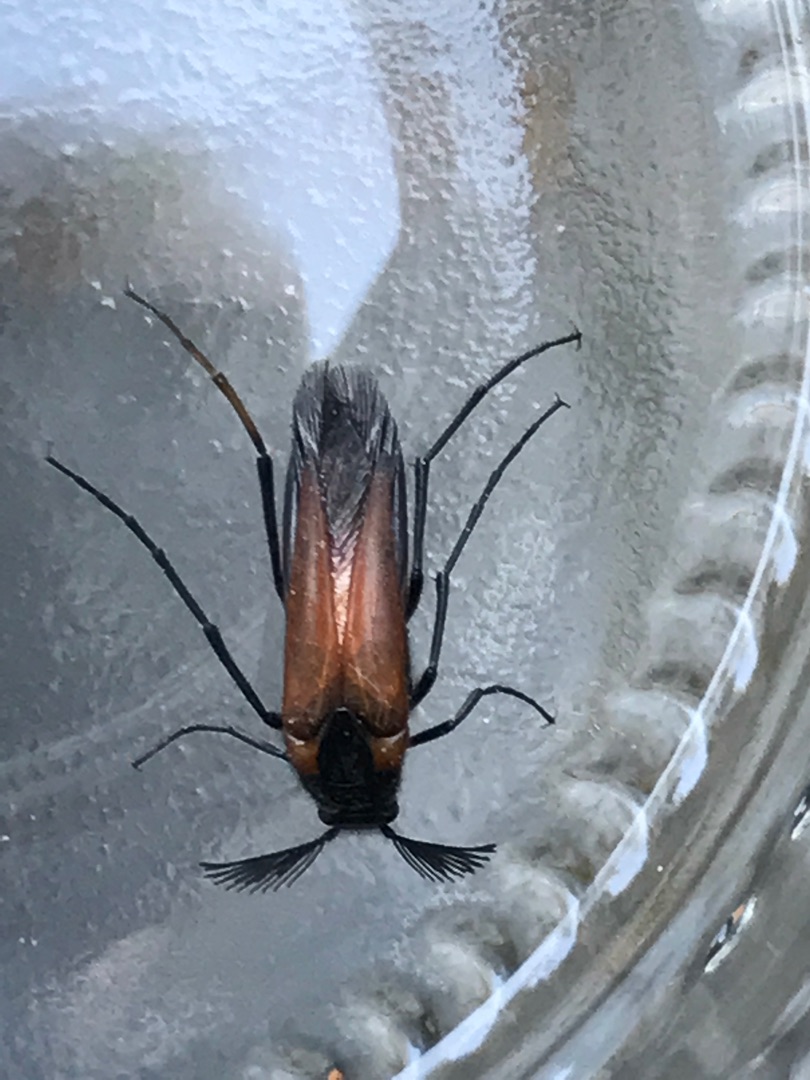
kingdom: Animalia
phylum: Arthropoda
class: Insecta
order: Coleoptera
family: Ripiphoridae
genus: Metoecus
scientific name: Metoecus paradoxus
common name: Hvepsesnyltebille
